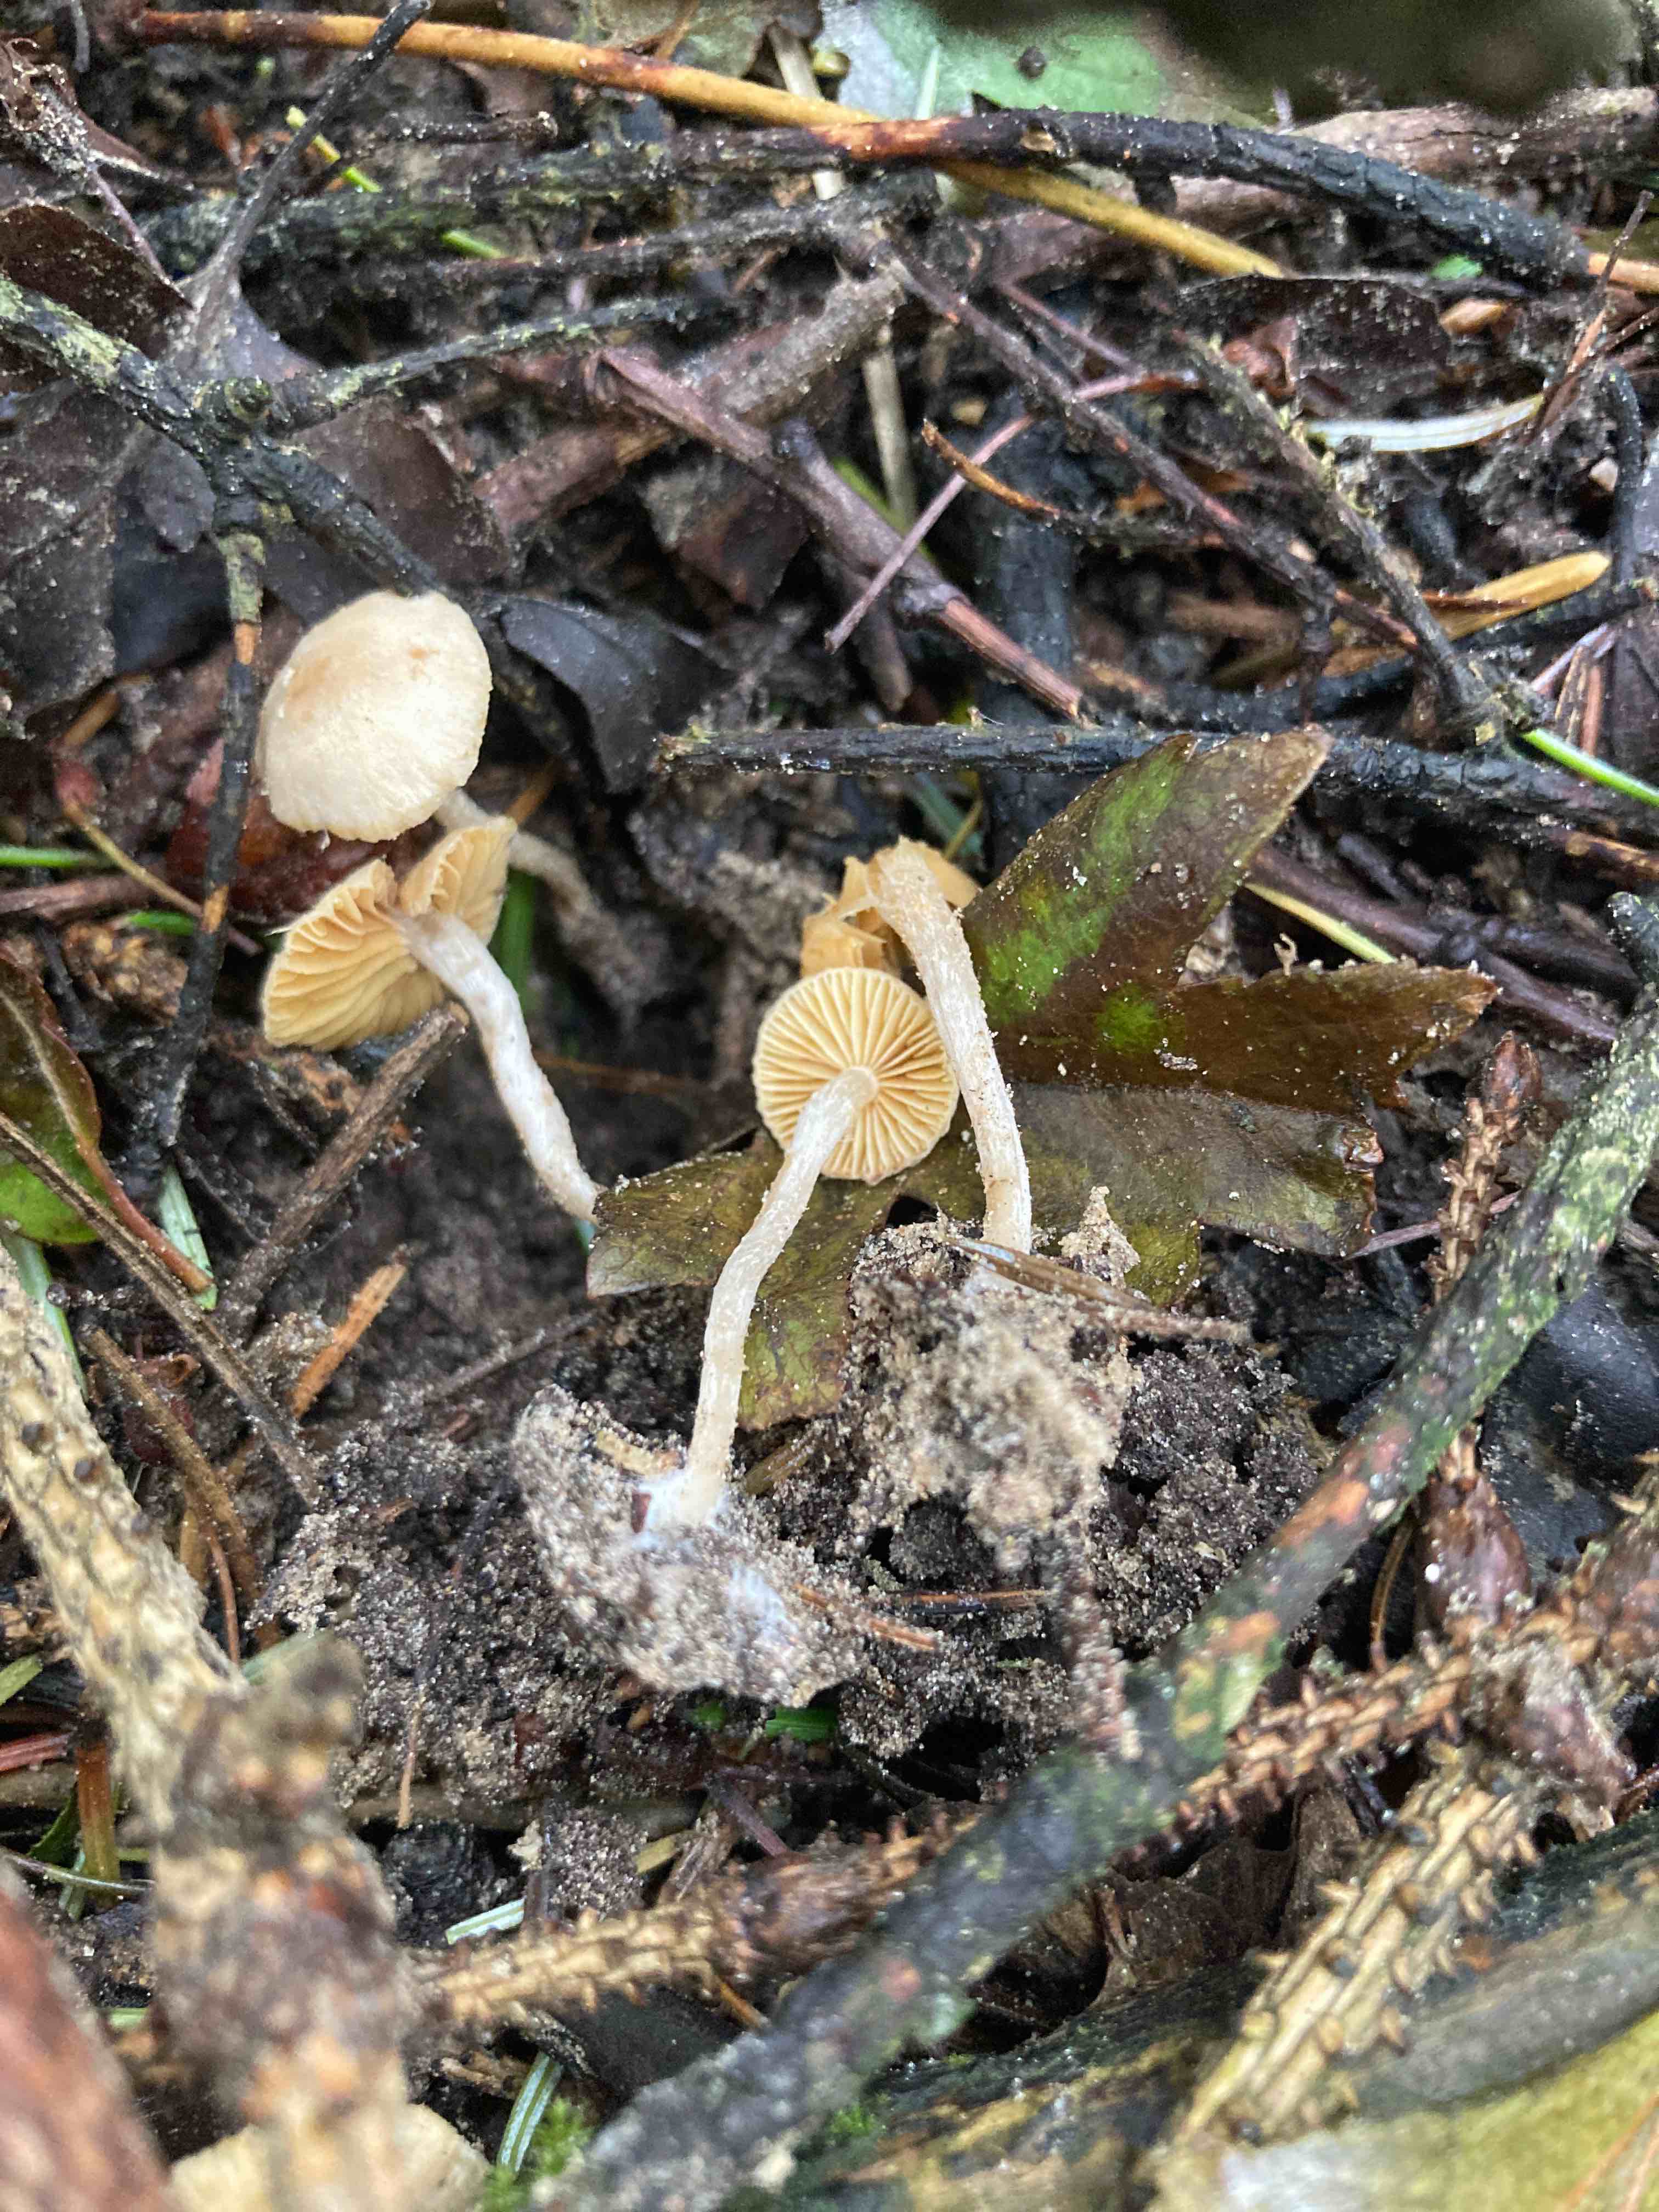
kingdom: Fungi
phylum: Basidiomycota
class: Agaricomycetes
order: Agaricales
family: Tubariaceae
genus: Tubaria
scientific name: Tubaria dispersa
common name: tjørne-fnughat
